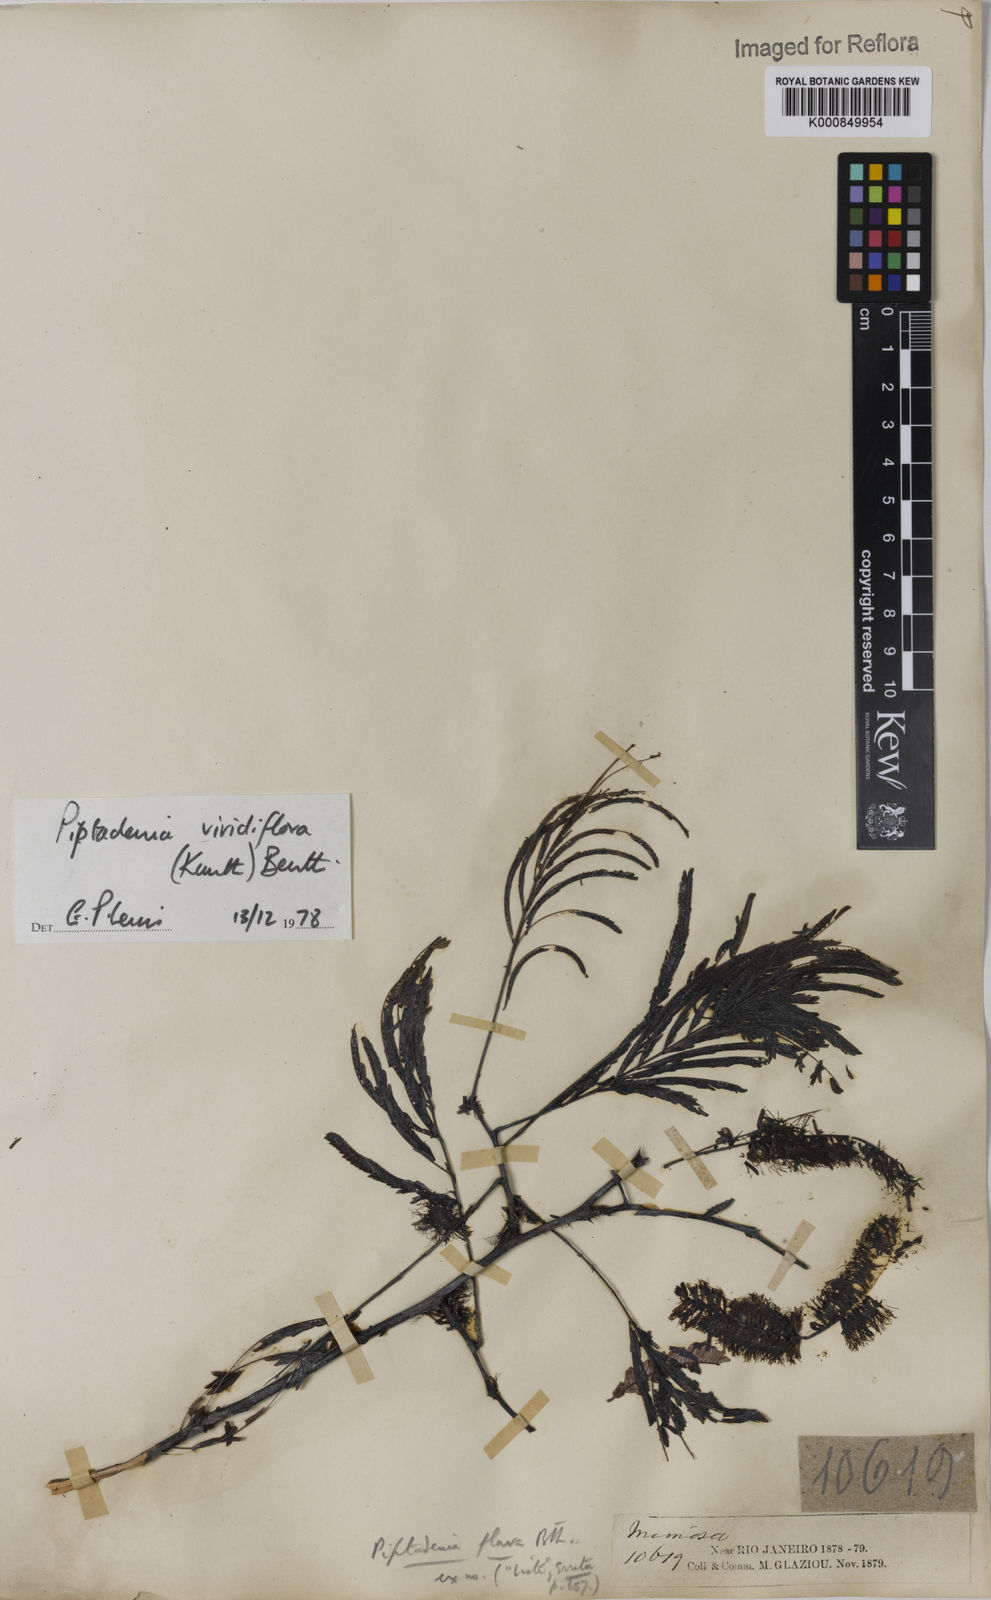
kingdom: Plantae
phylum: Tracheophyta
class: Magnoliopsida
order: Fabales
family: Fabaceae
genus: Lachesiodendron
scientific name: Lachesiodendron viridiflorum
